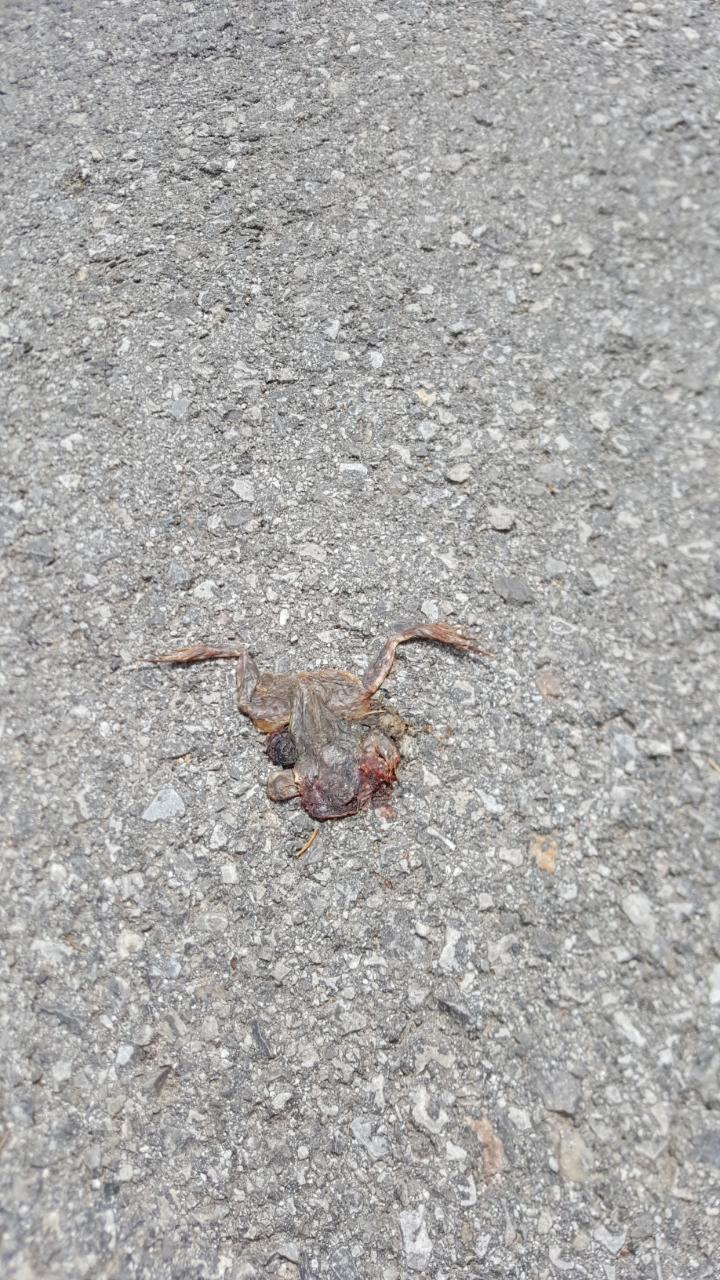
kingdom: Animalia
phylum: Chordata
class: Amphibia
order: Anura
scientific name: Anura
